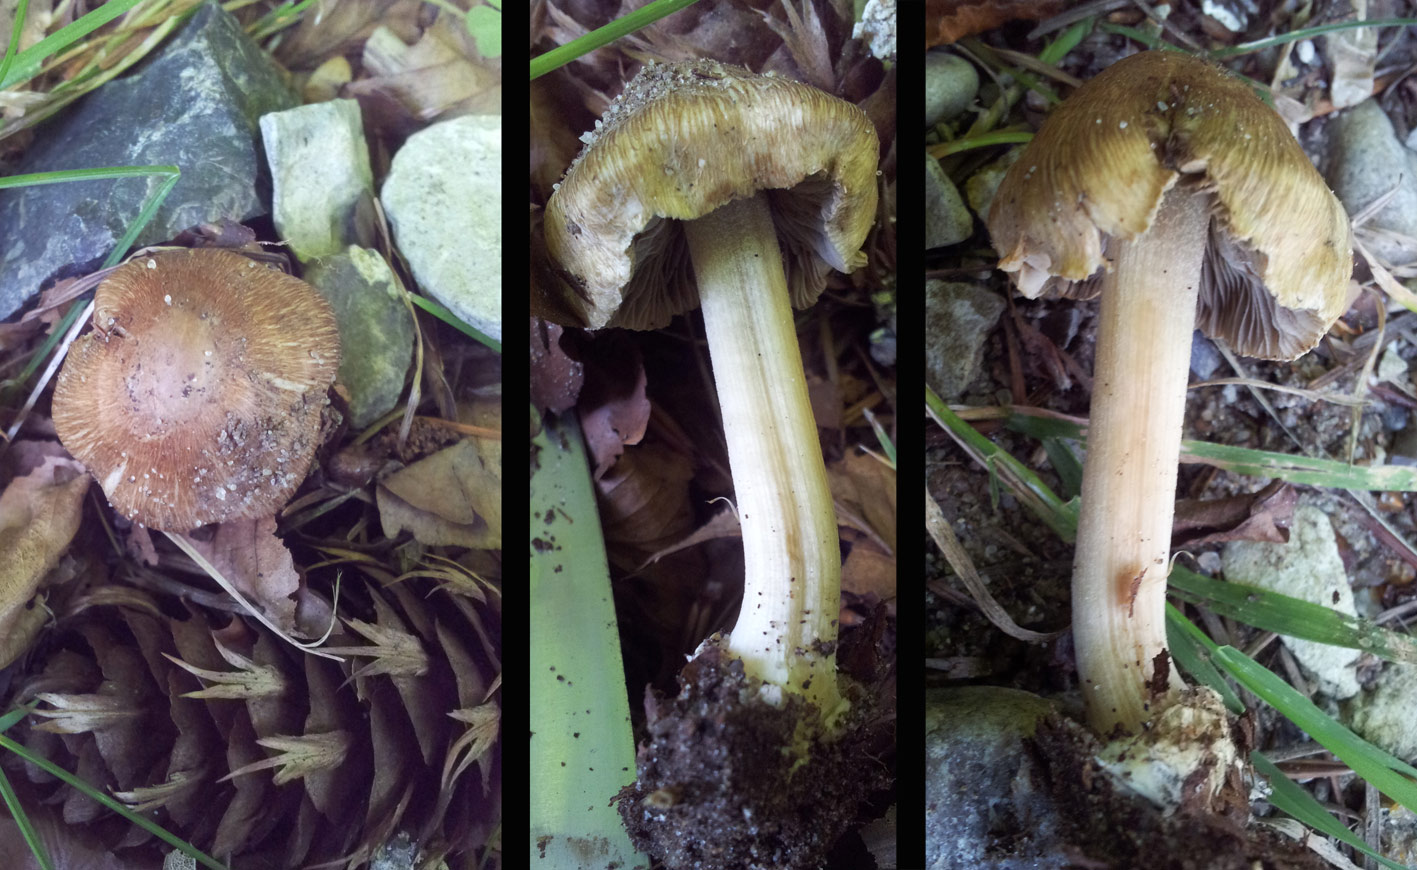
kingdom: Fungi
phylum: Basidiomycota
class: Agaricomycetes
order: Agaricales
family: Inocybaceae
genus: Inocybe
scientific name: Inocybe
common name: trævlhat
